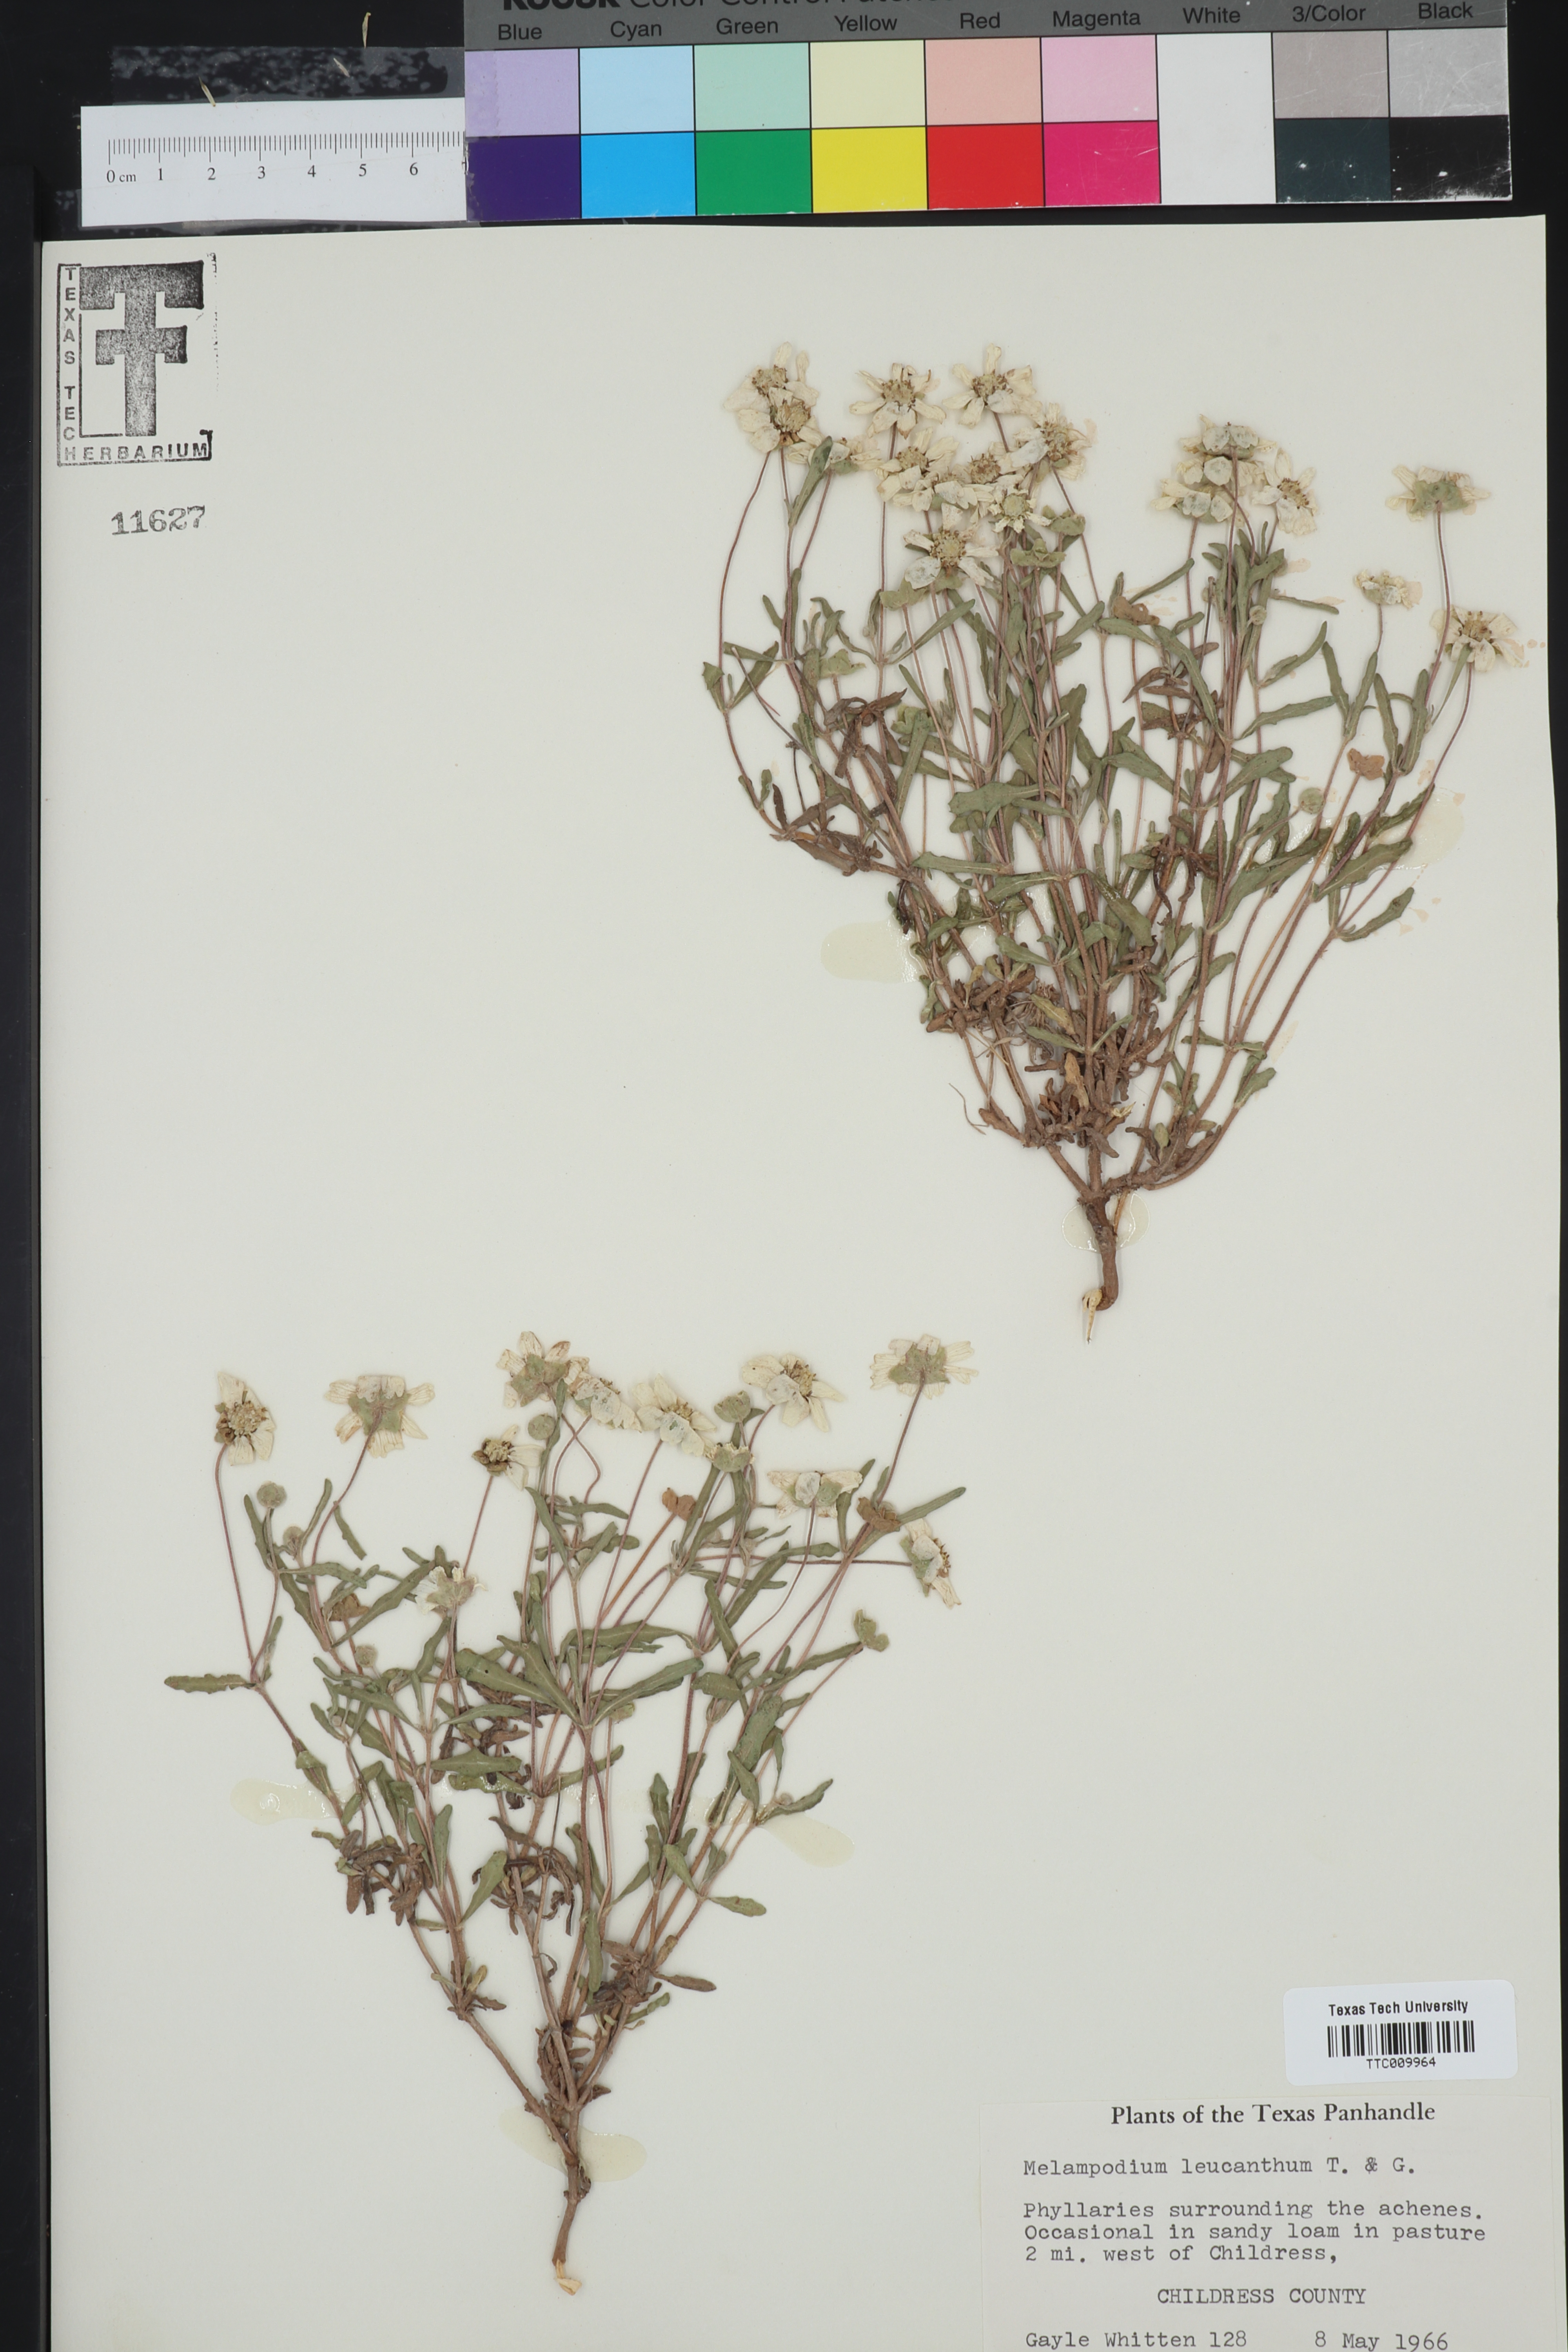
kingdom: Plantae
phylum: Tracheophyta
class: Magnoliopsida
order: Asterales
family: Asteraceae
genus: Melampodium
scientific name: Melampodium leucanthum
